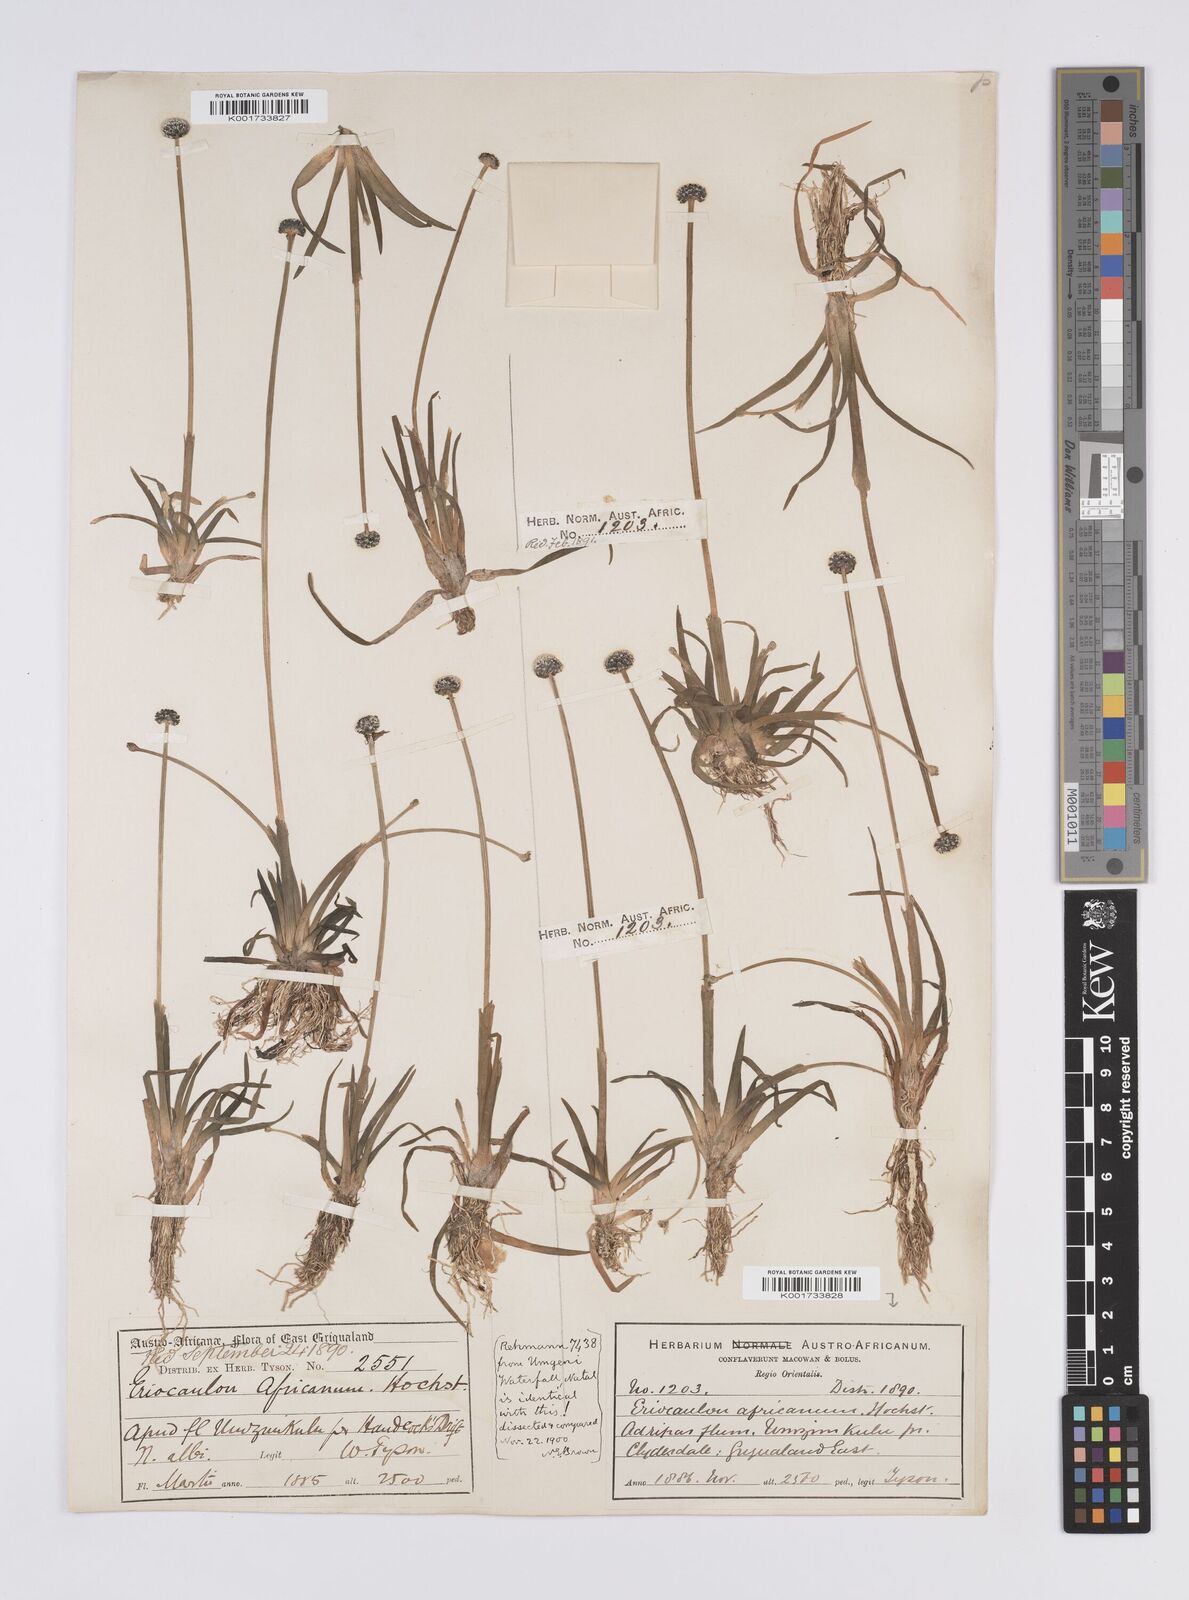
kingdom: Plantae
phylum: Tracheophyta
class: Liliopsida
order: Poales
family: Eriocaulaceae
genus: Eriocaulon
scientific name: Eriocaulon africanum
